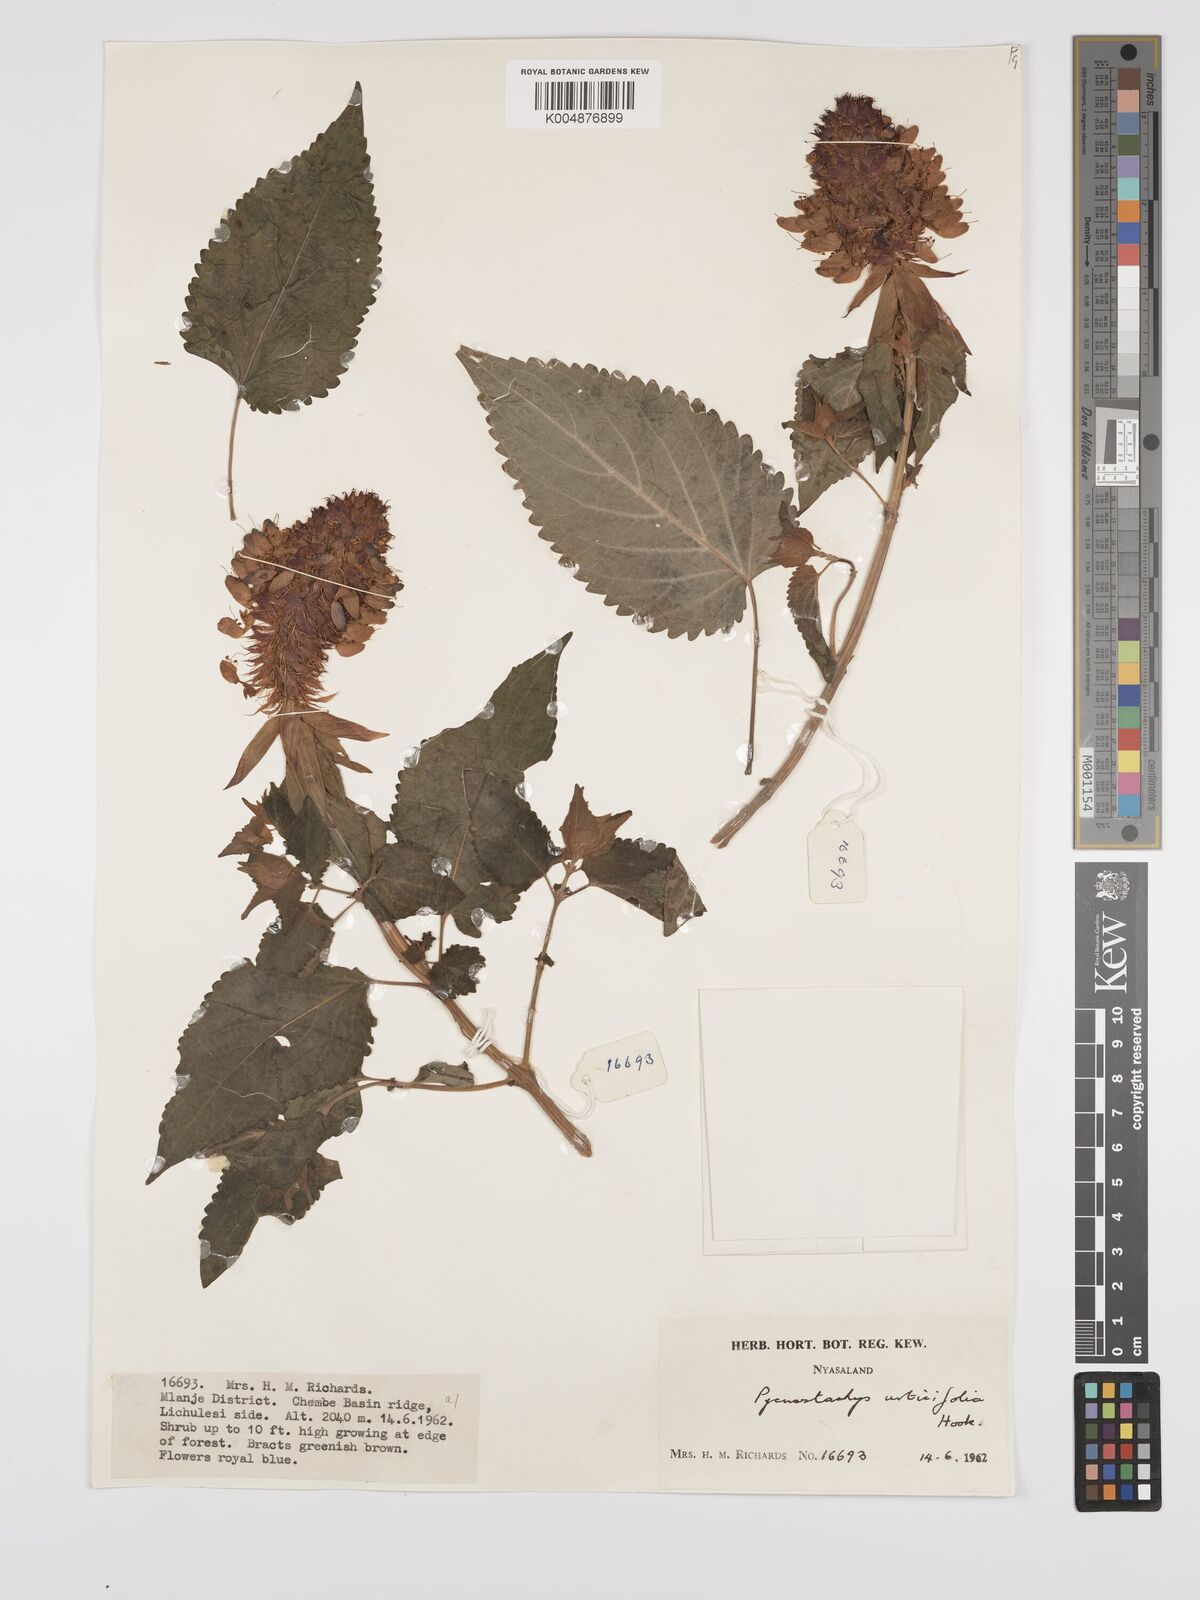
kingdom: Plantae
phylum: Tracheophyta
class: Magnoliopsida
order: Lamiales
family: Lamiaceae
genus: Coleus
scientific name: Coleus livingstonei
